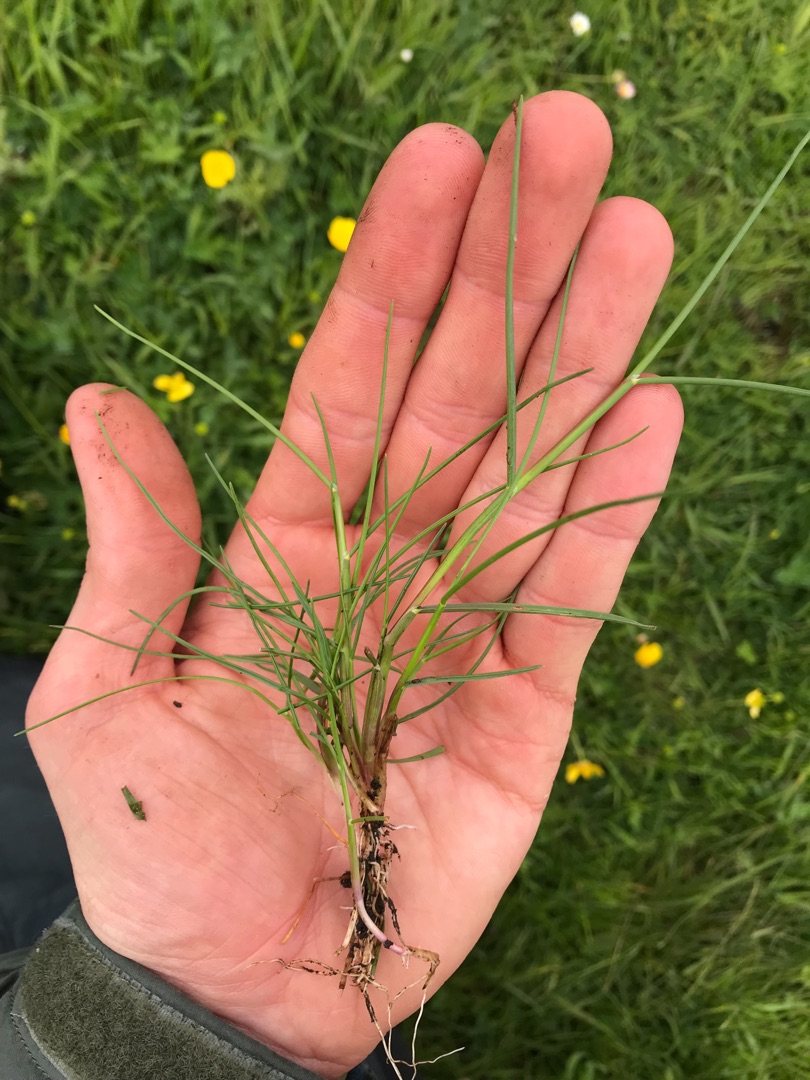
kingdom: Plantae
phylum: Tracheophyta
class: Liliopsida
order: Poales
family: Poaceae
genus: Puccinellia
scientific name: Puccinellia maritima
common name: Strand-annelgræs
